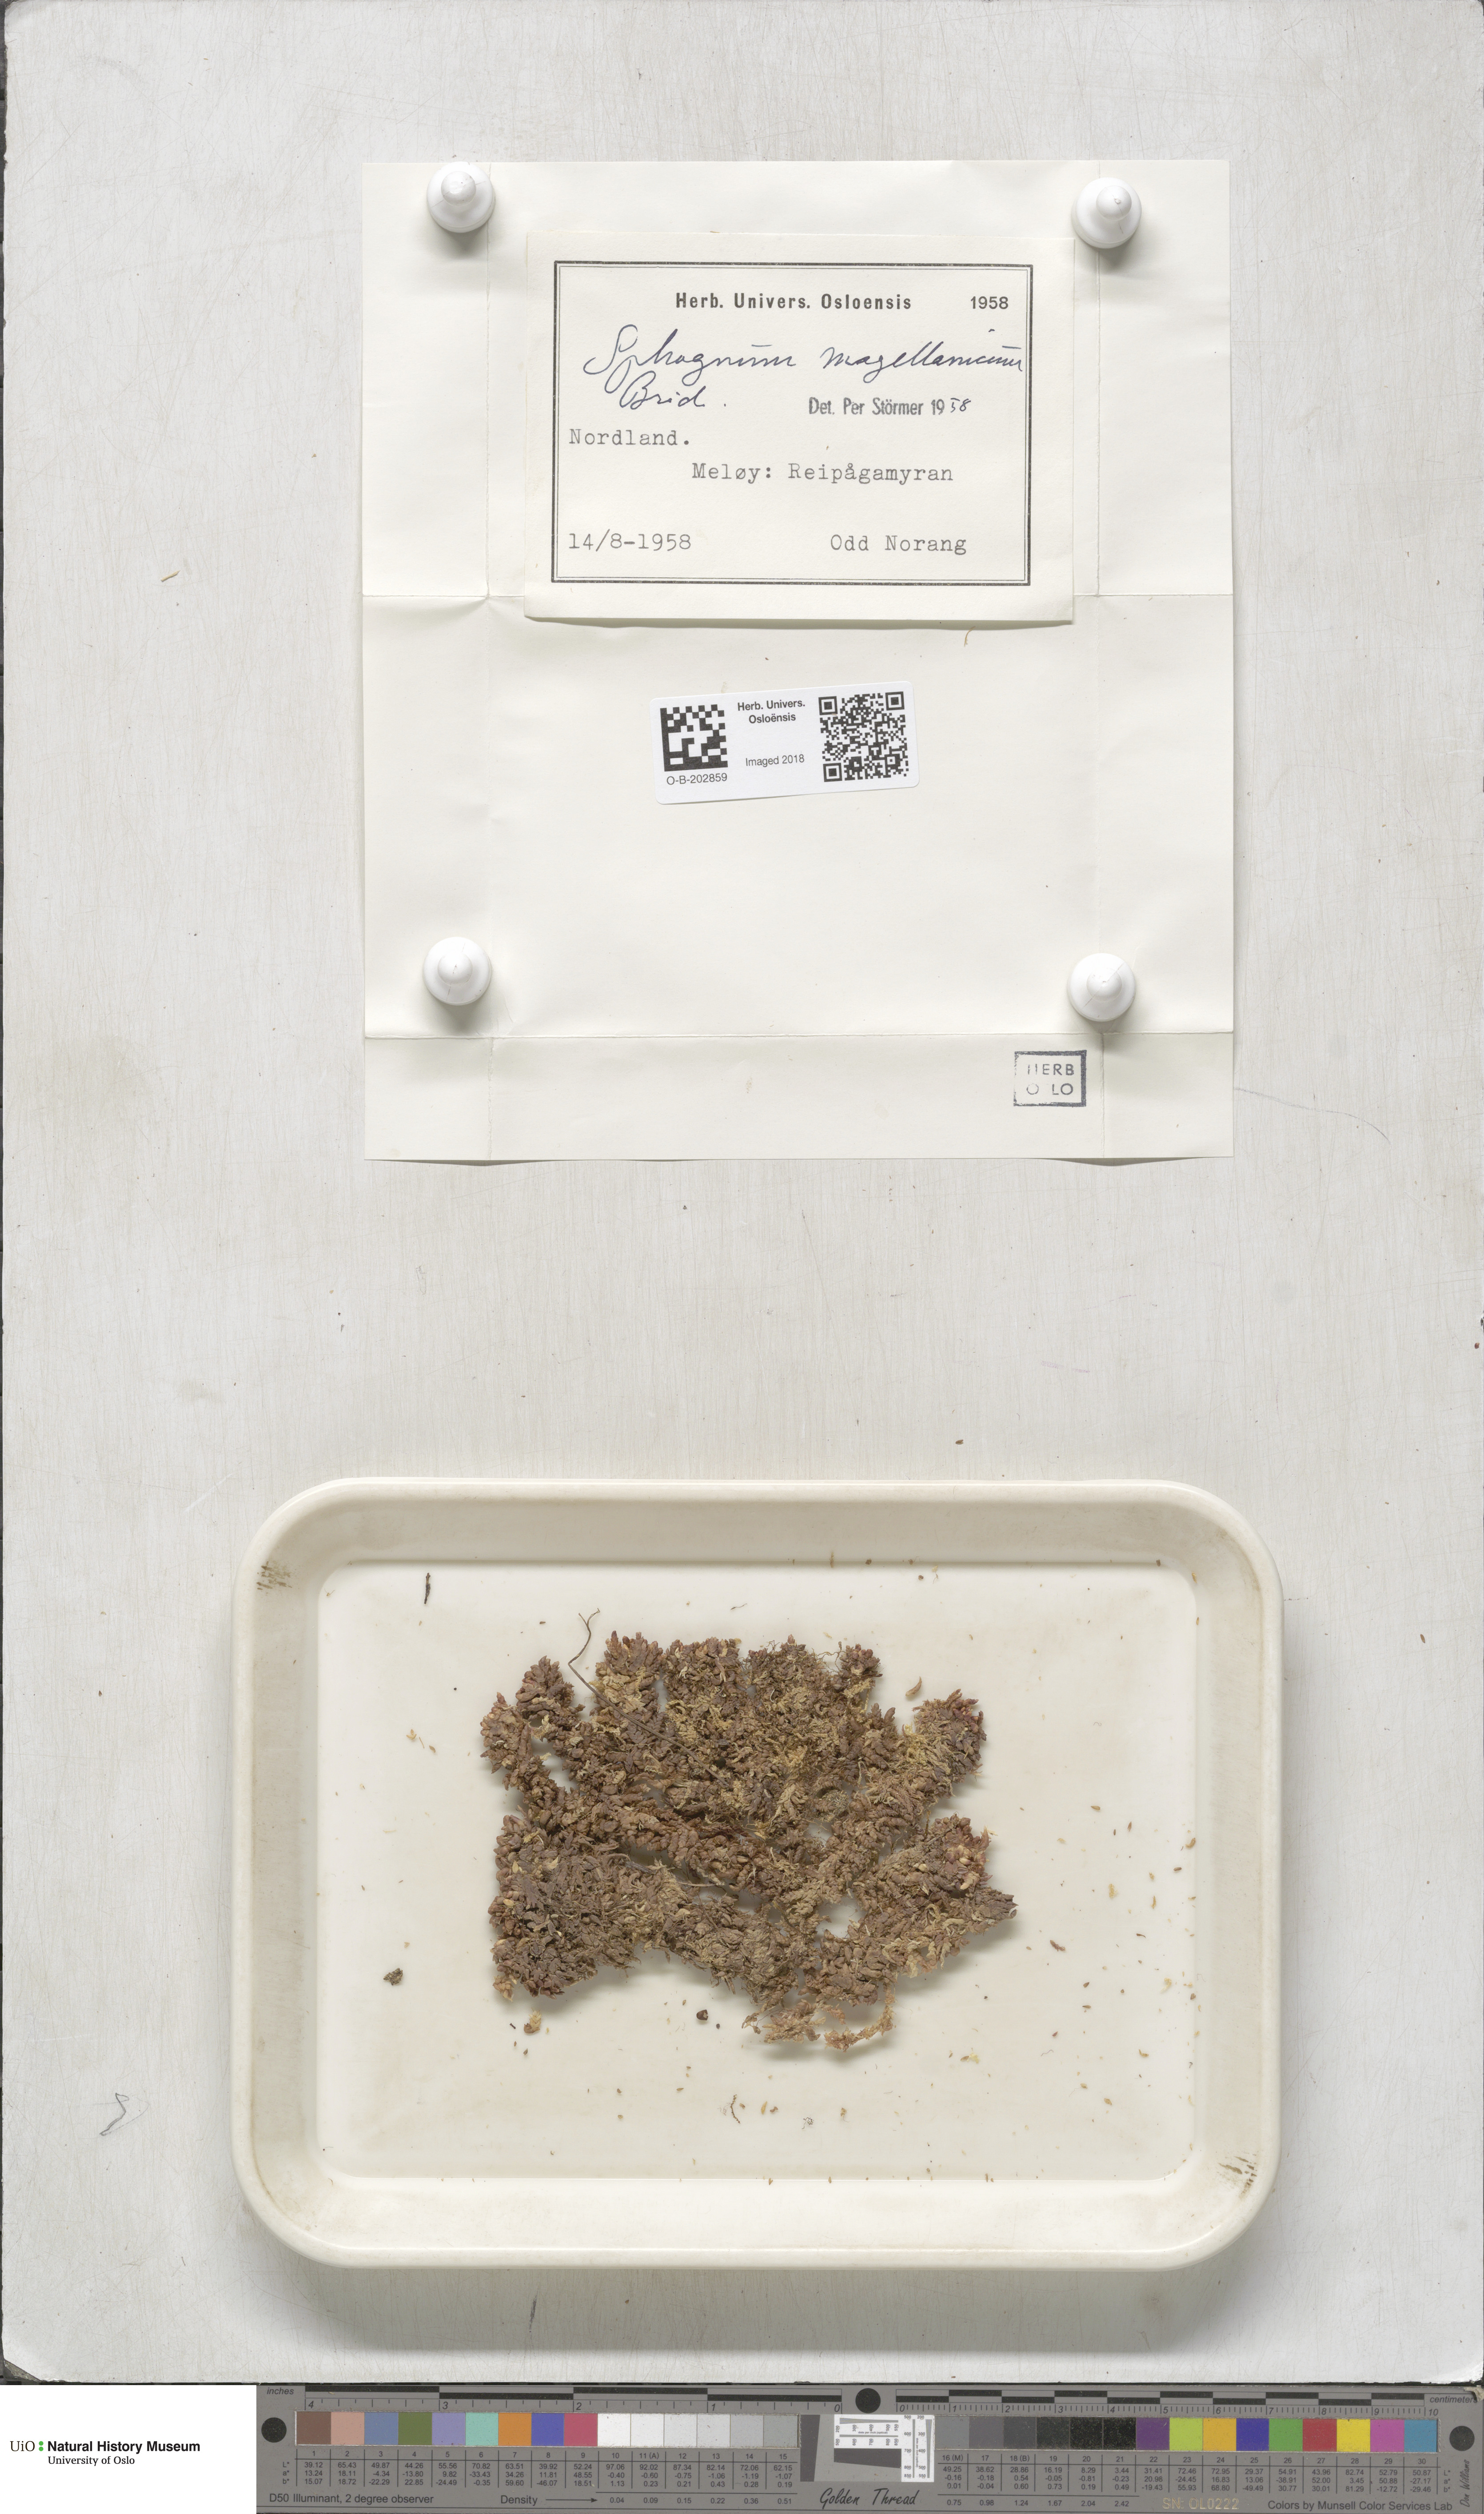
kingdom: Plantae
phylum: Bryophyta
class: Sphagnopsida
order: Sphagnales
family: Sphagnaceae
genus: Sphagnum
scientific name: Sphagnum magellanicum
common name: Magellan's peat moss
